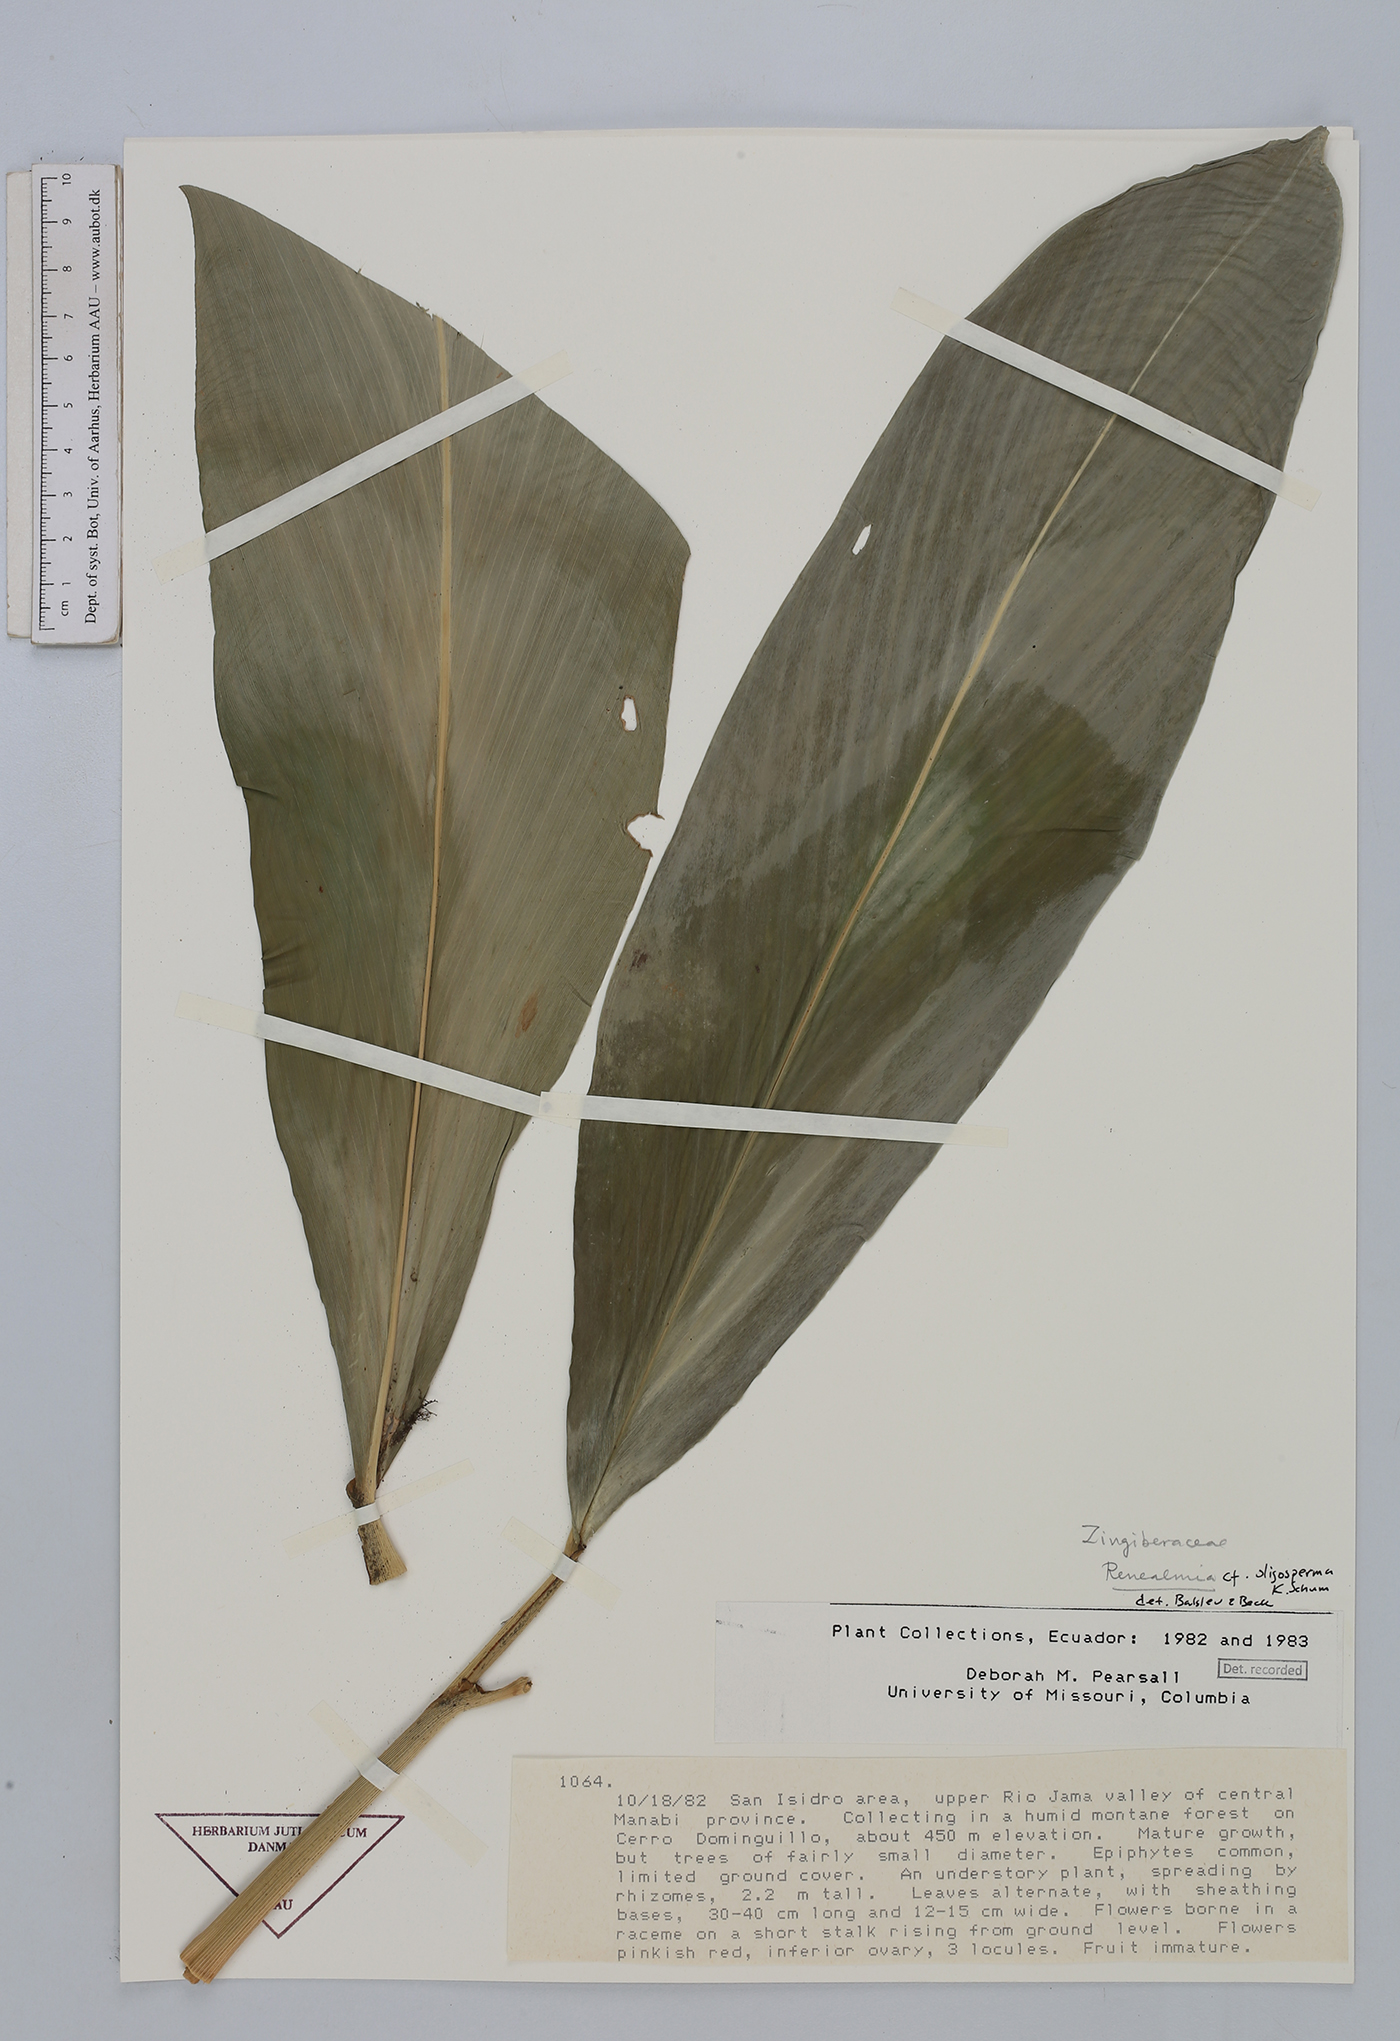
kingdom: Plantae
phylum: Tracheophyta
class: Liliopsida
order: Zingiberales
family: Zingiberaceae
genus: Renealmia
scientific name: Renealmia oligosperma
